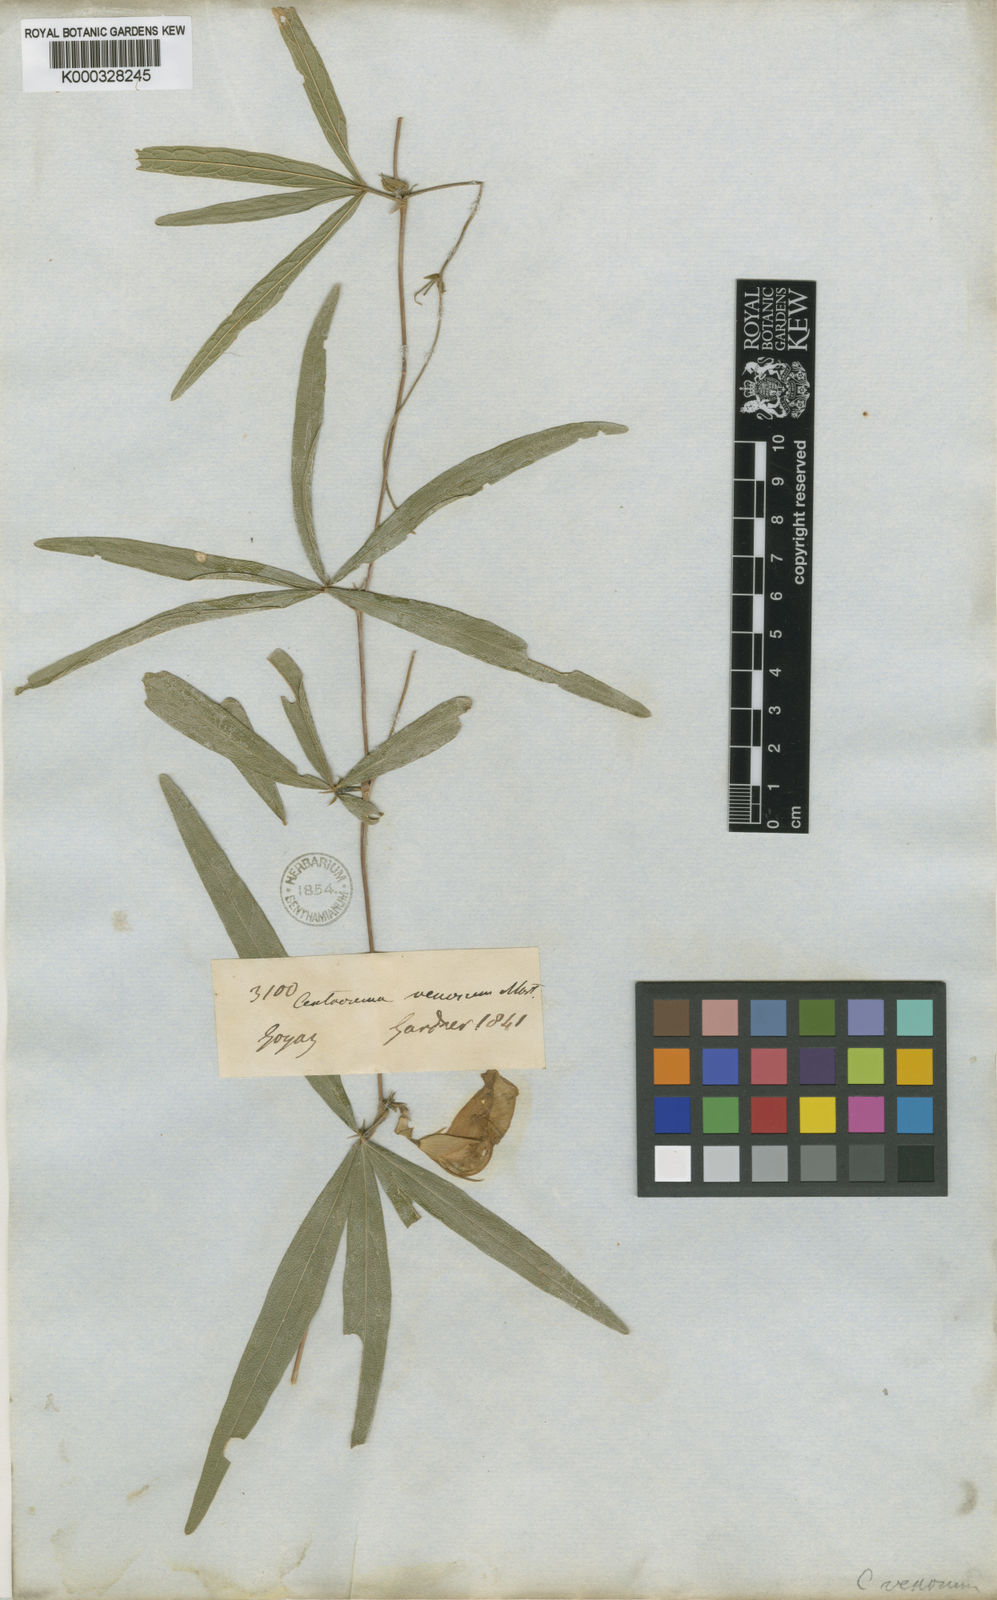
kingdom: Plantae
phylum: Tracheophyta
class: Magnoliopsida
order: Fabales
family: Fabaceae
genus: Centrosema
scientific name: Centrosema venosum
